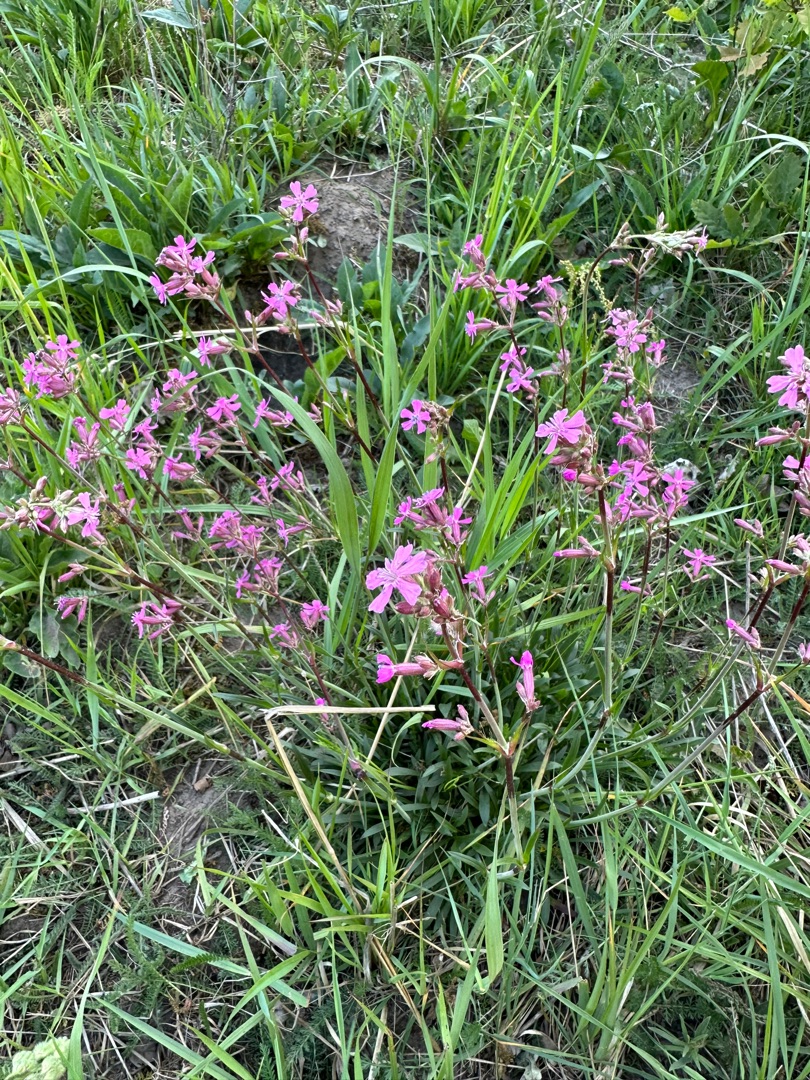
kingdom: Plantae
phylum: Tracheophyta
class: Magnoliopsida
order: Caryophyllales
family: Caryophyllaceae
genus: Viscaria
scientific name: Viscaria vulgaris
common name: Tjærenellike
